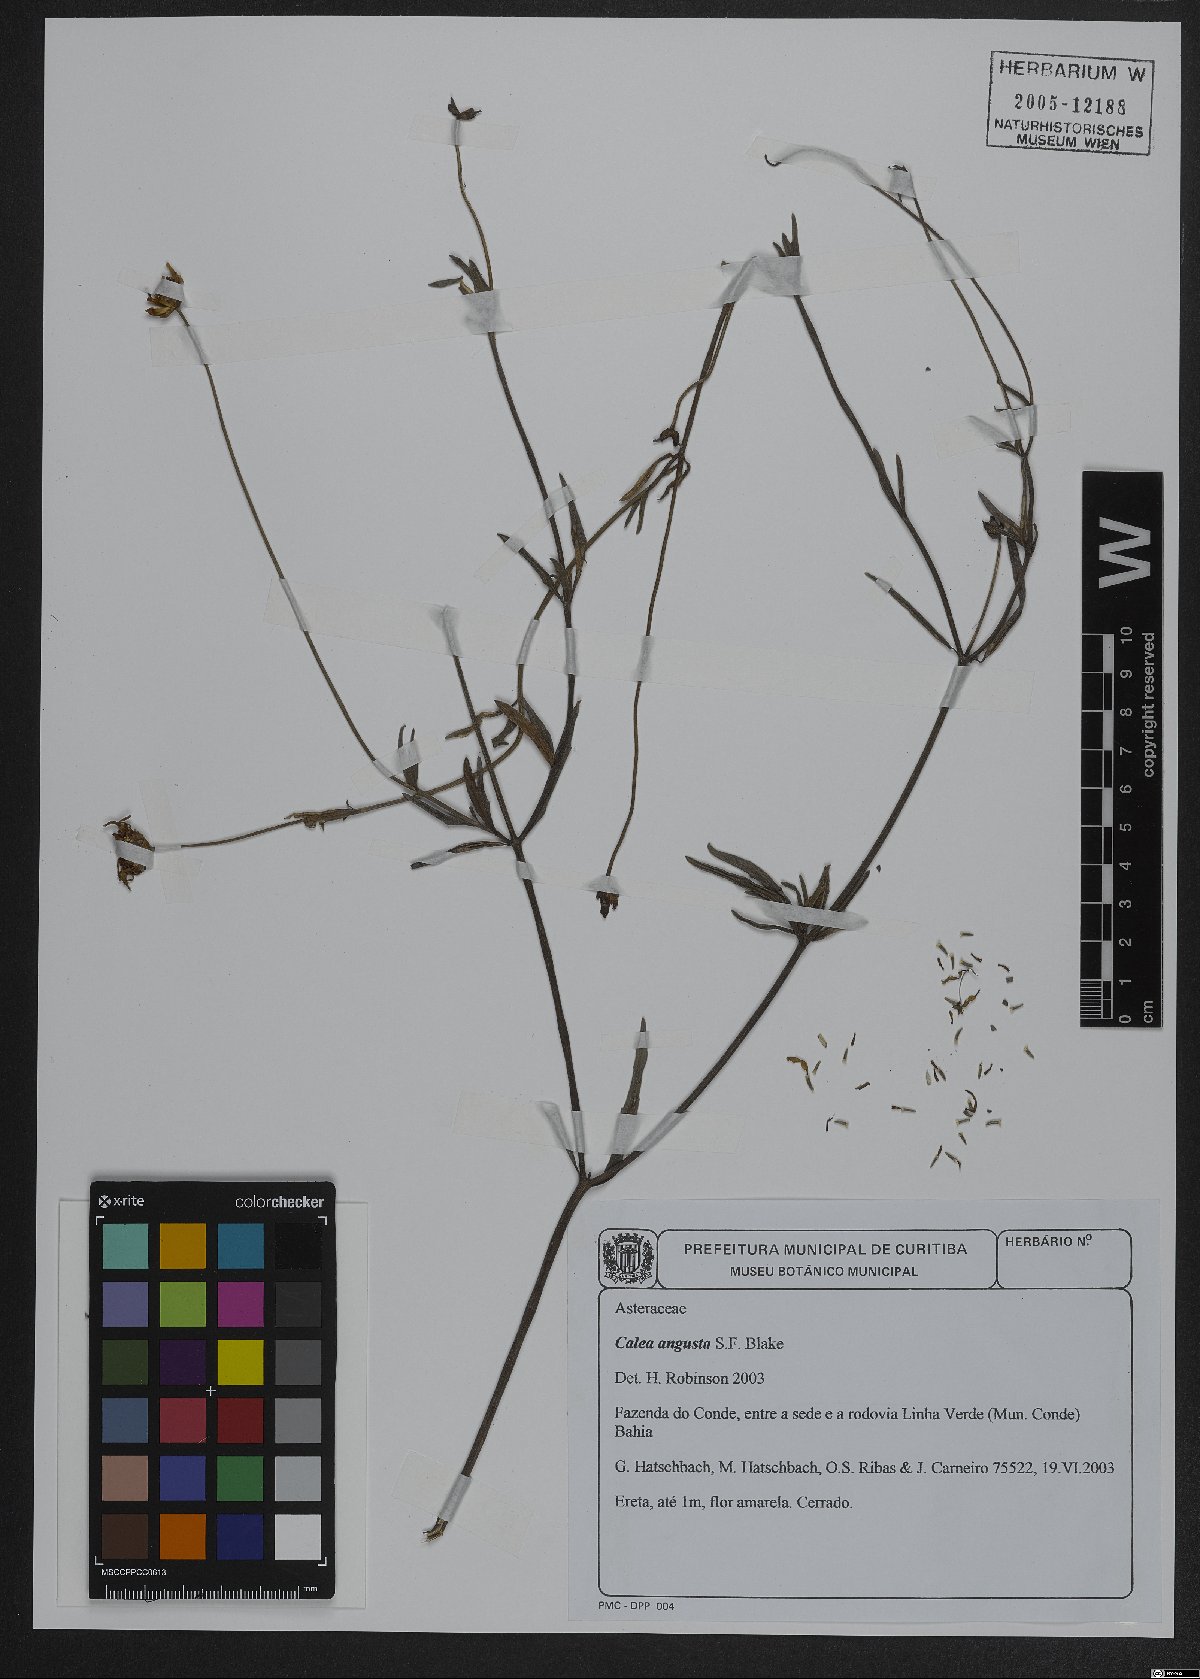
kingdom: Plantae
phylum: Tracheophyta
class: Magnoliopsida
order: Asterales
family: Asteraceae
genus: Calea
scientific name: Calea angusta
